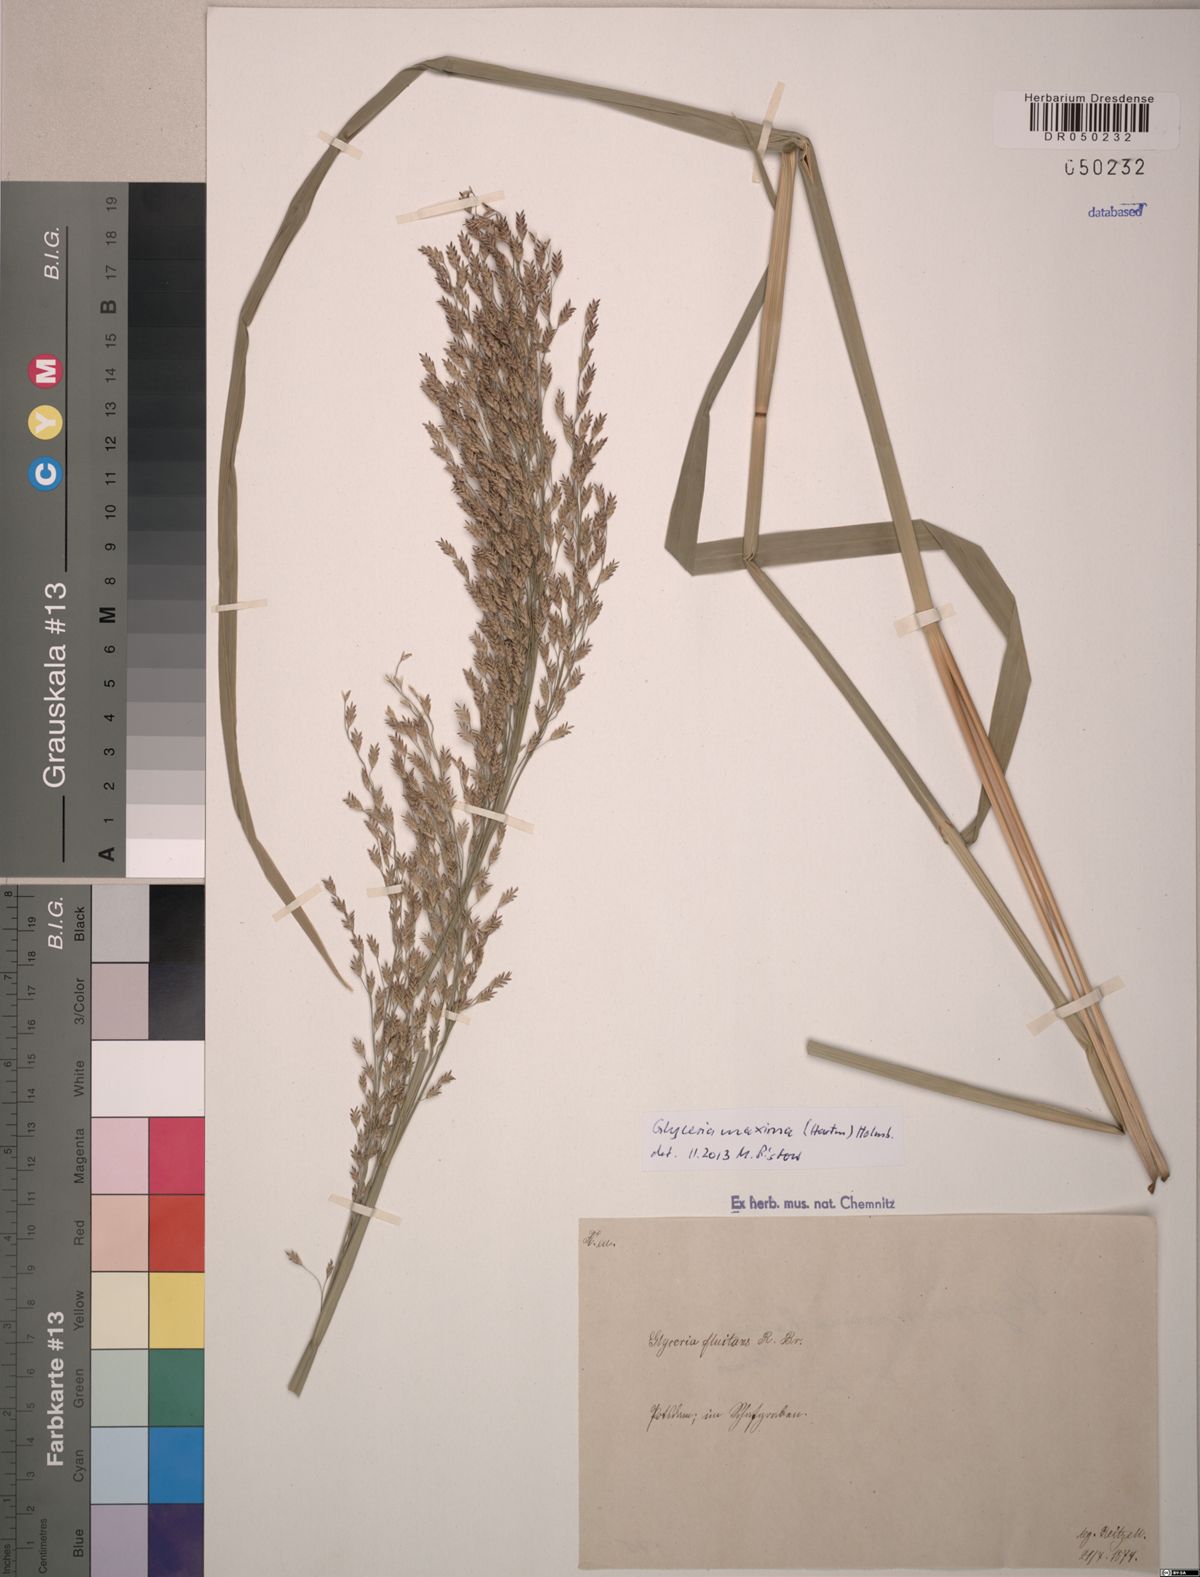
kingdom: Plantae
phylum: Tracheophyta
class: Liliopsida
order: Poales
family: Poaceae
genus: Glyceria
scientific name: Glyceria maxima
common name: Reed mannagrass
